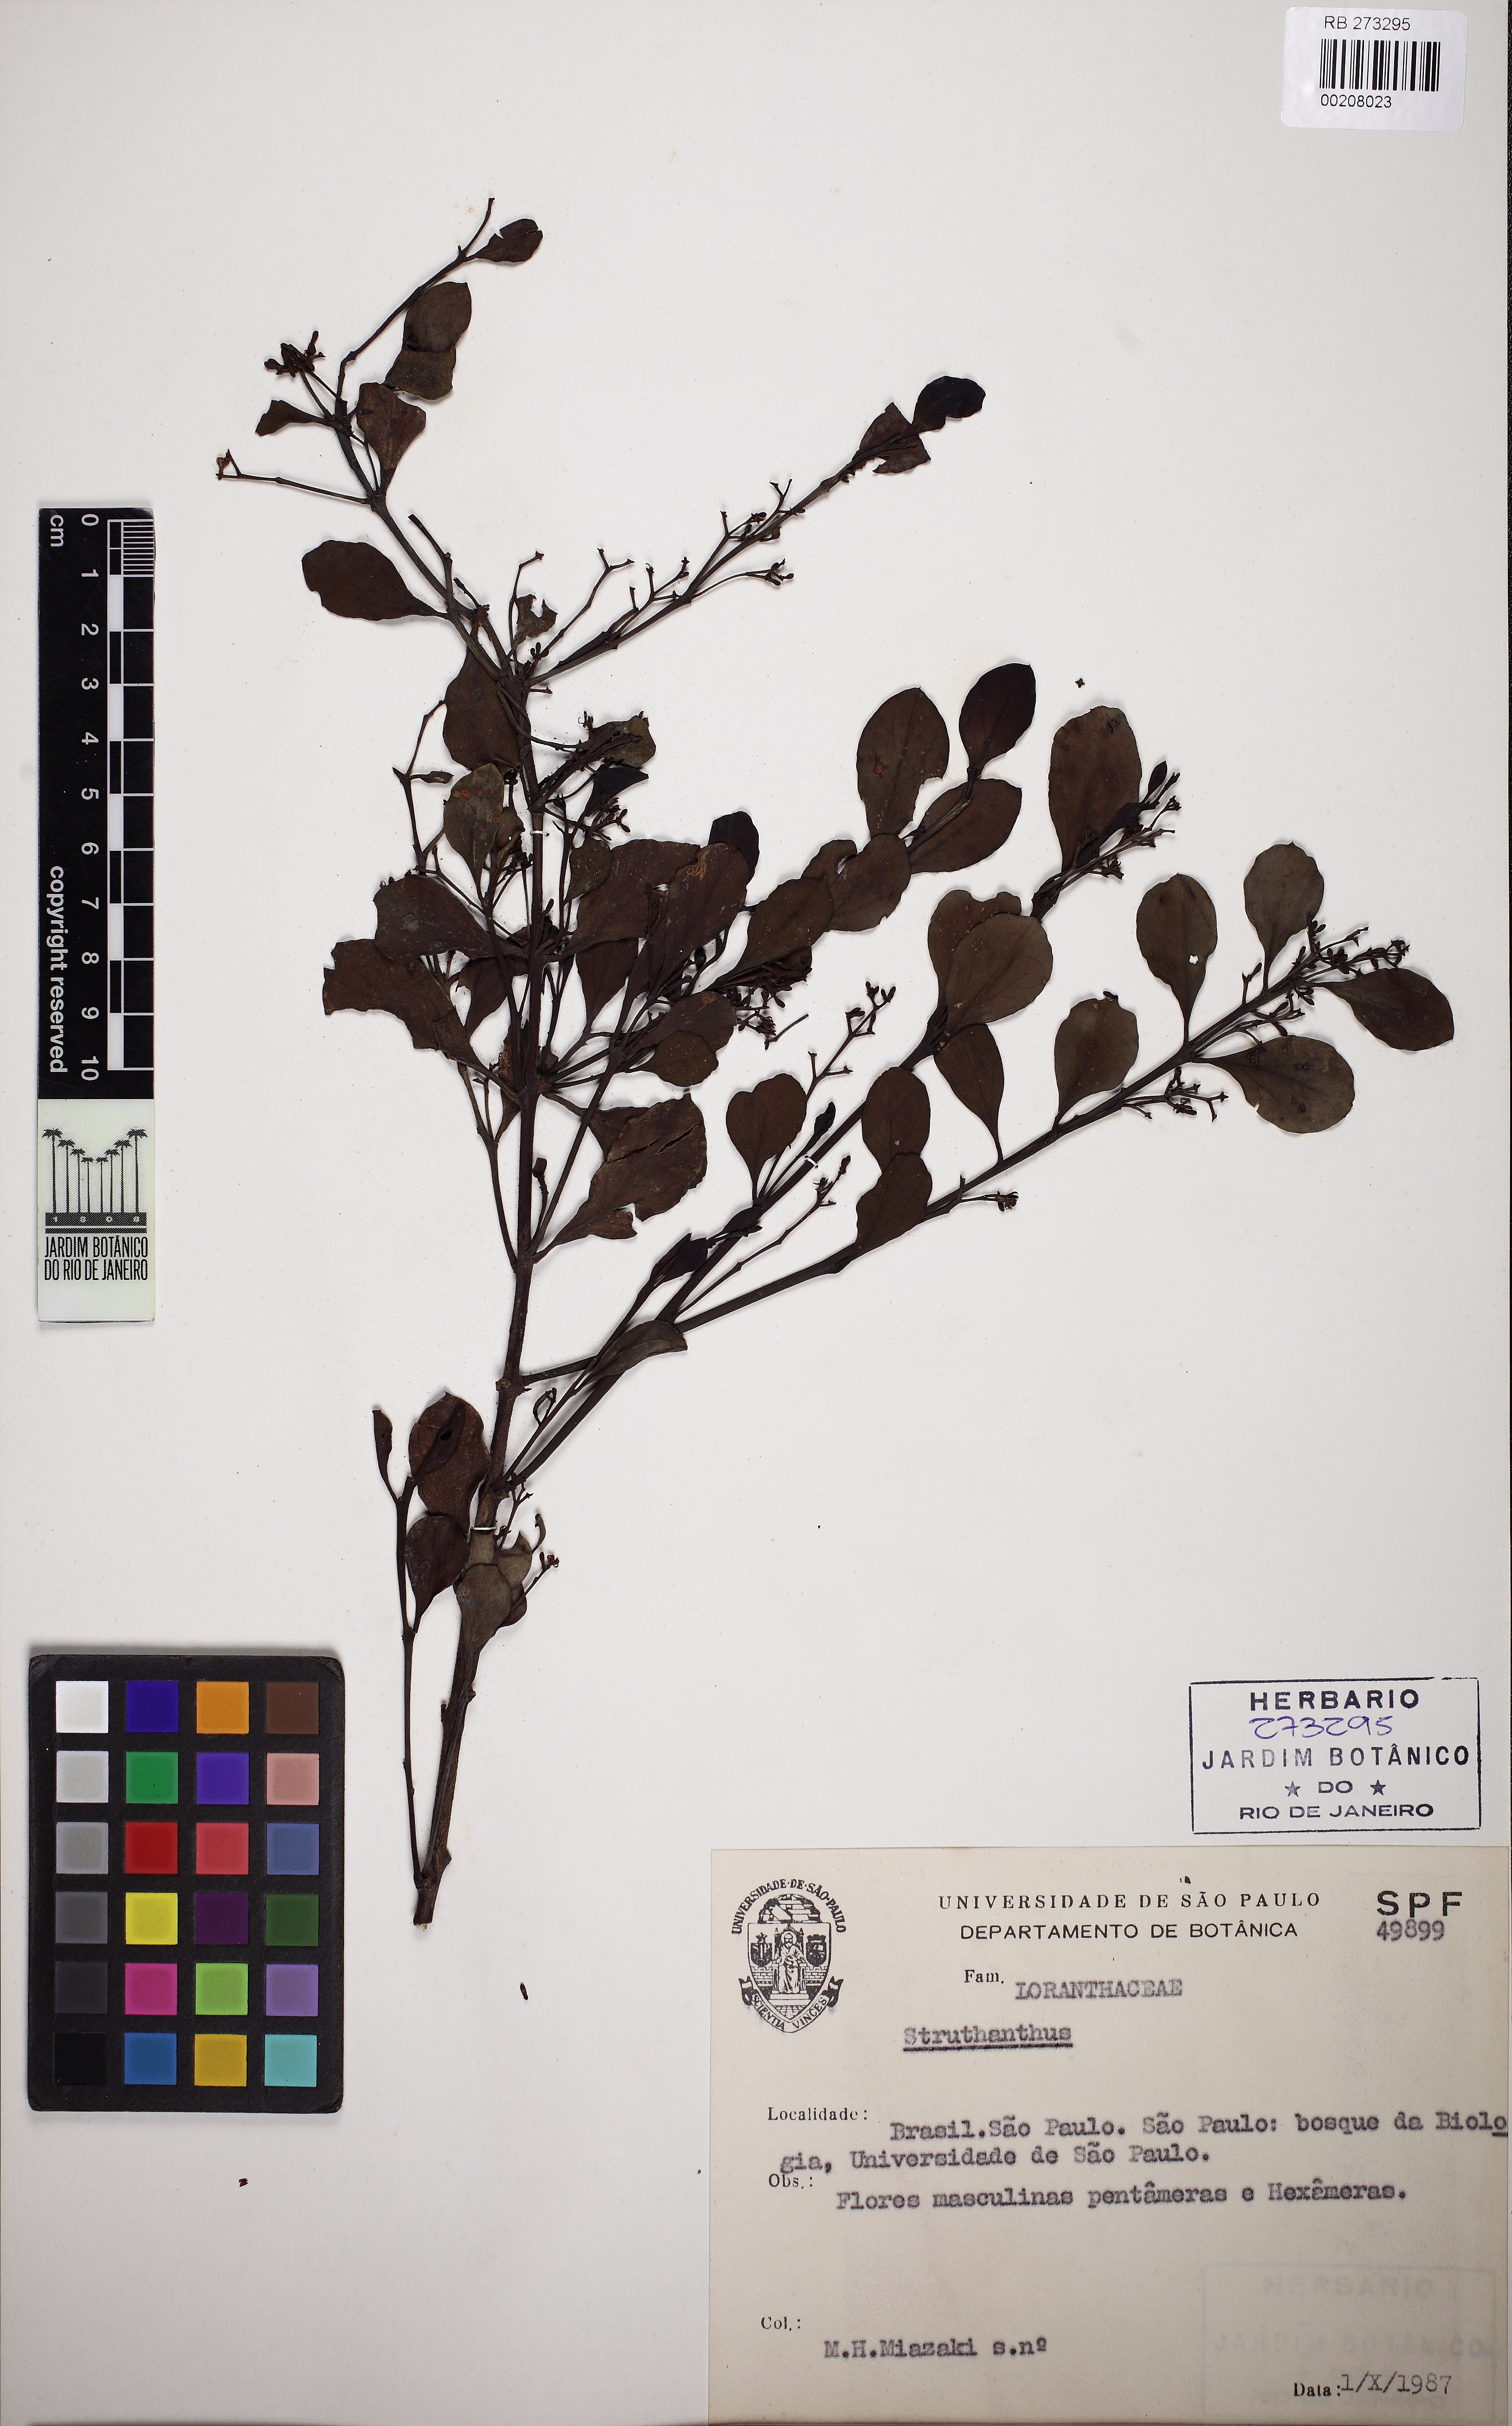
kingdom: Plantae
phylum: Tracheophyta
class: Magnoliopsida
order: Santalales
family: Loranthaceae
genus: Struthanthus
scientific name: Struthanthus
